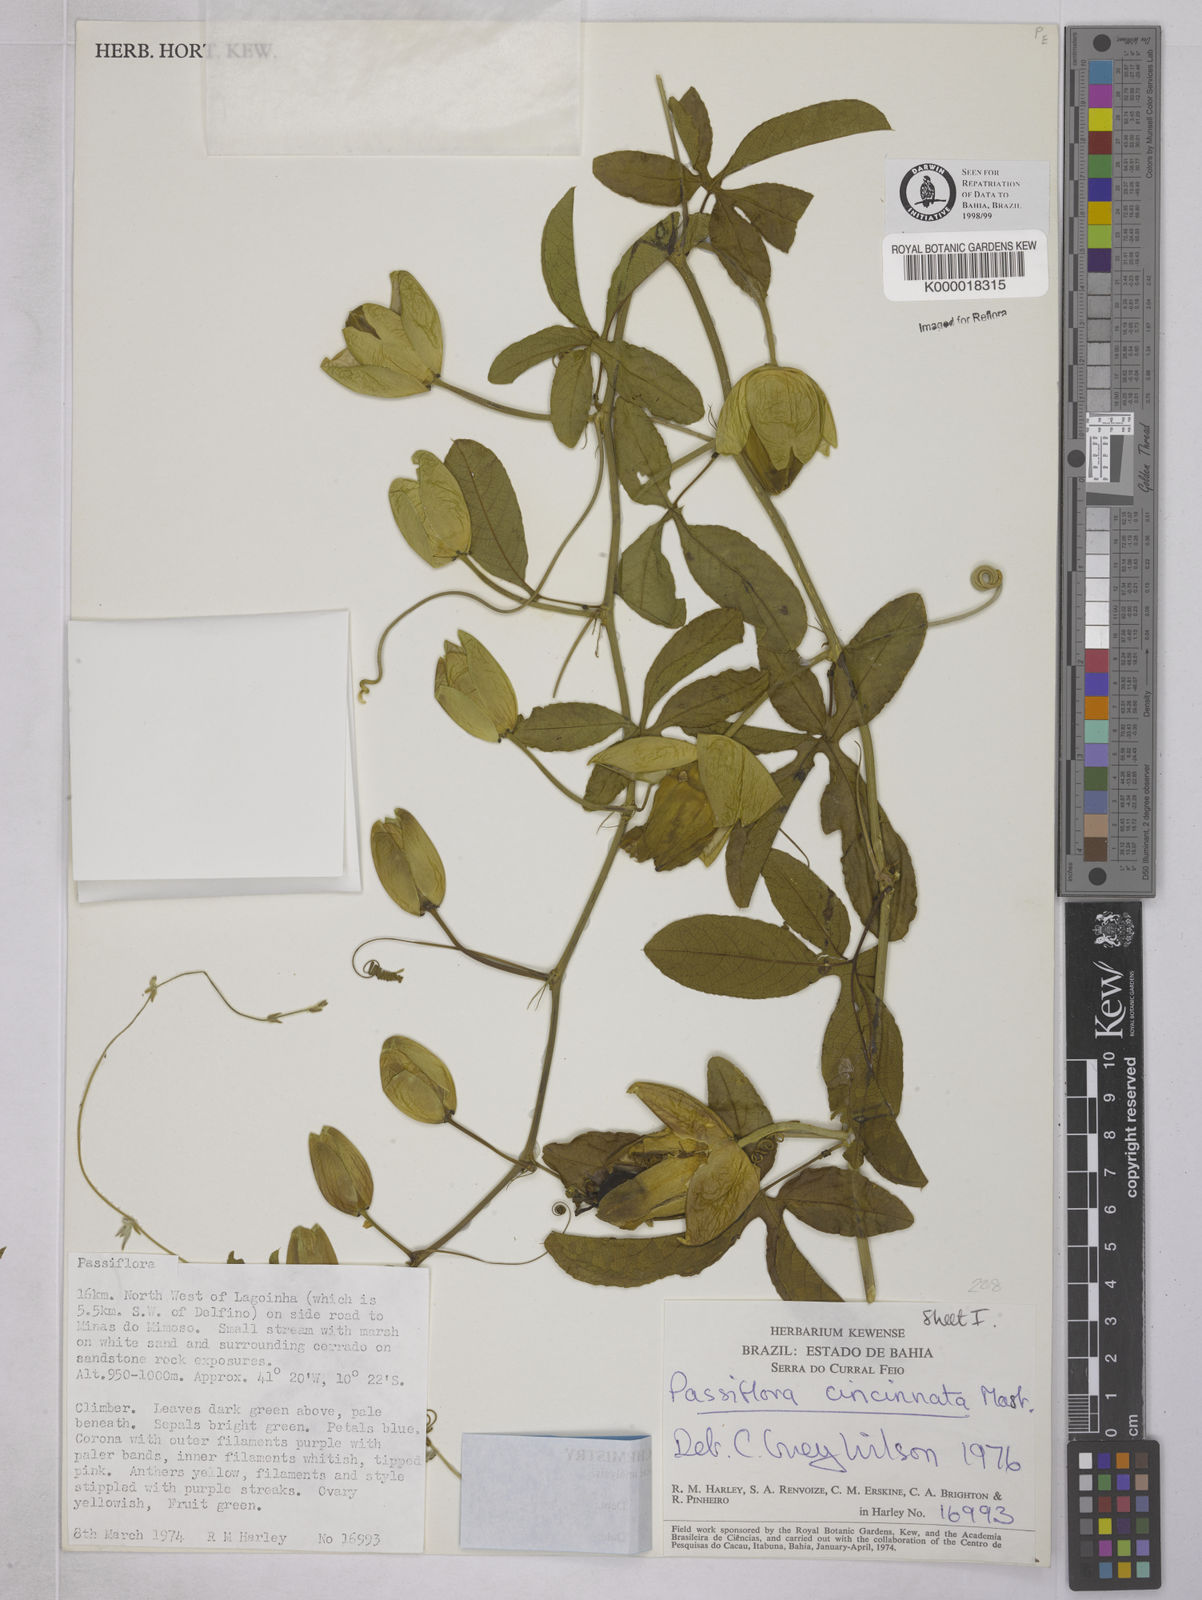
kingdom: Plantae
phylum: Tracheophyta
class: Magnoliopsida
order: Malpighiales
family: Passifloraceae
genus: Passiflora
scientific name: Passiflora cincinnata
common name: Crato passionvine
